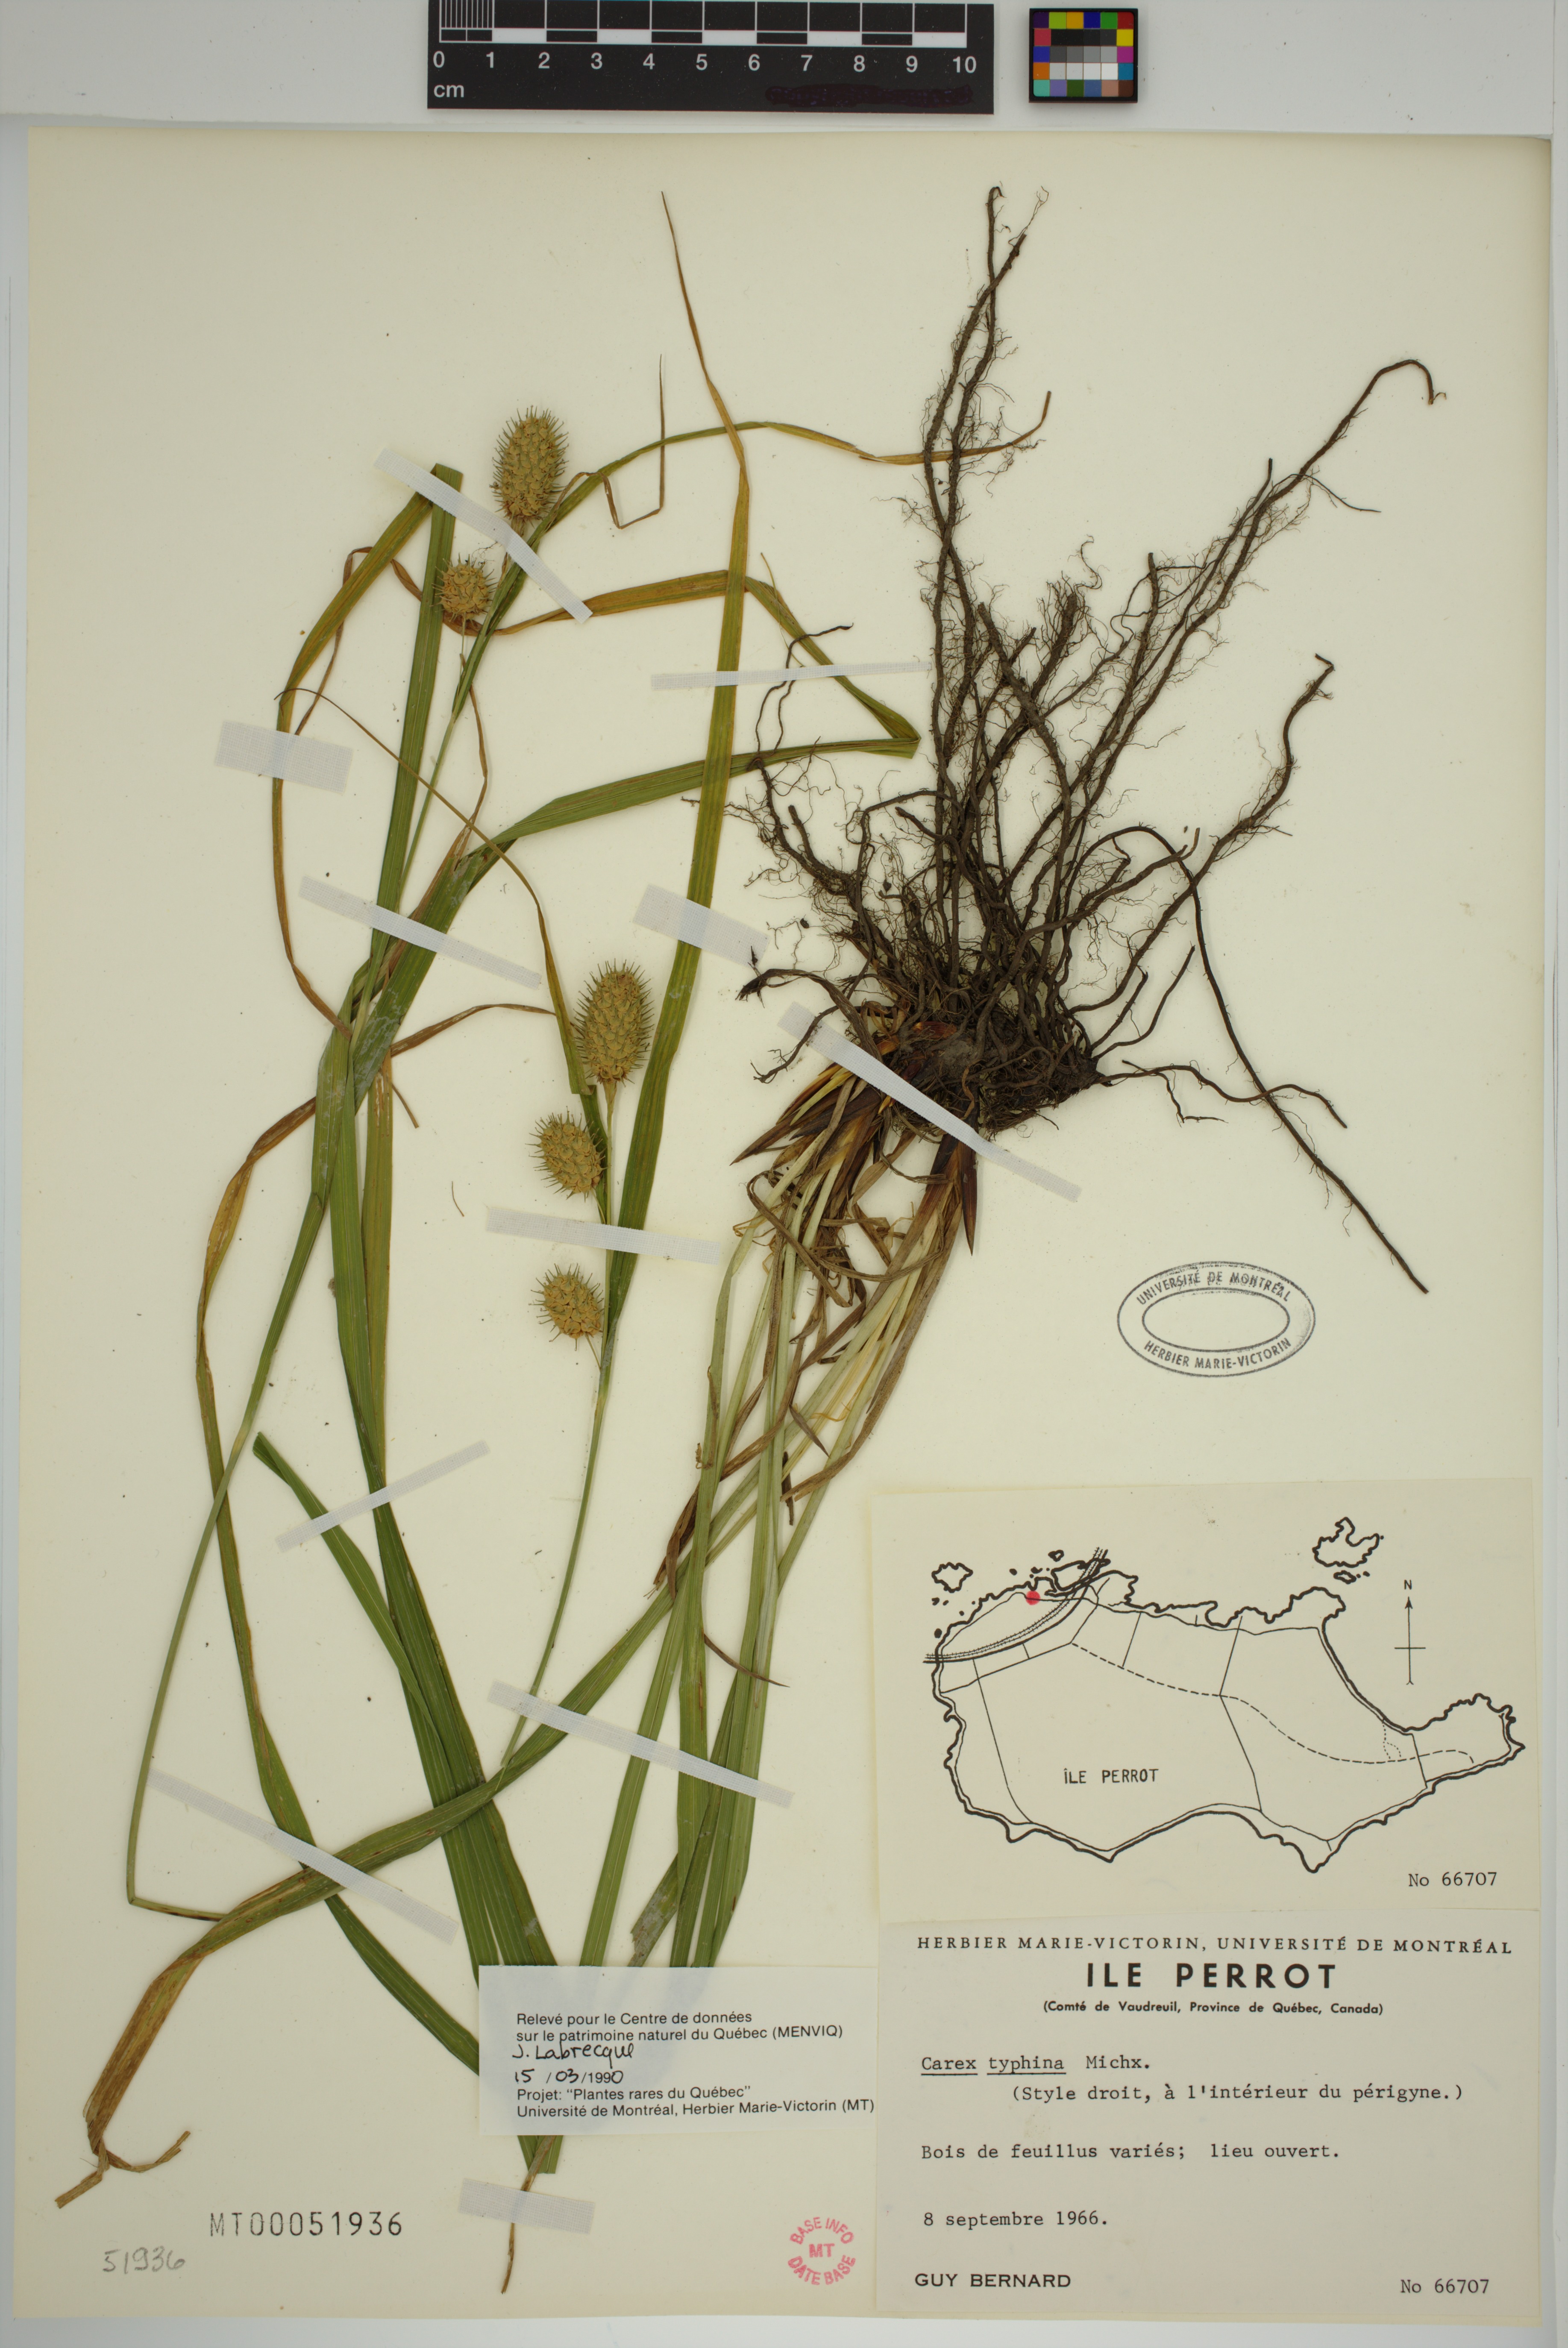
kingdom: Plantae
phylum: Tracheophyta
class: Liliopsida
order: Poales
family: Cyperaceae
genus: Carex
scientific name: Carex typhina
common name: Cattail sedge
